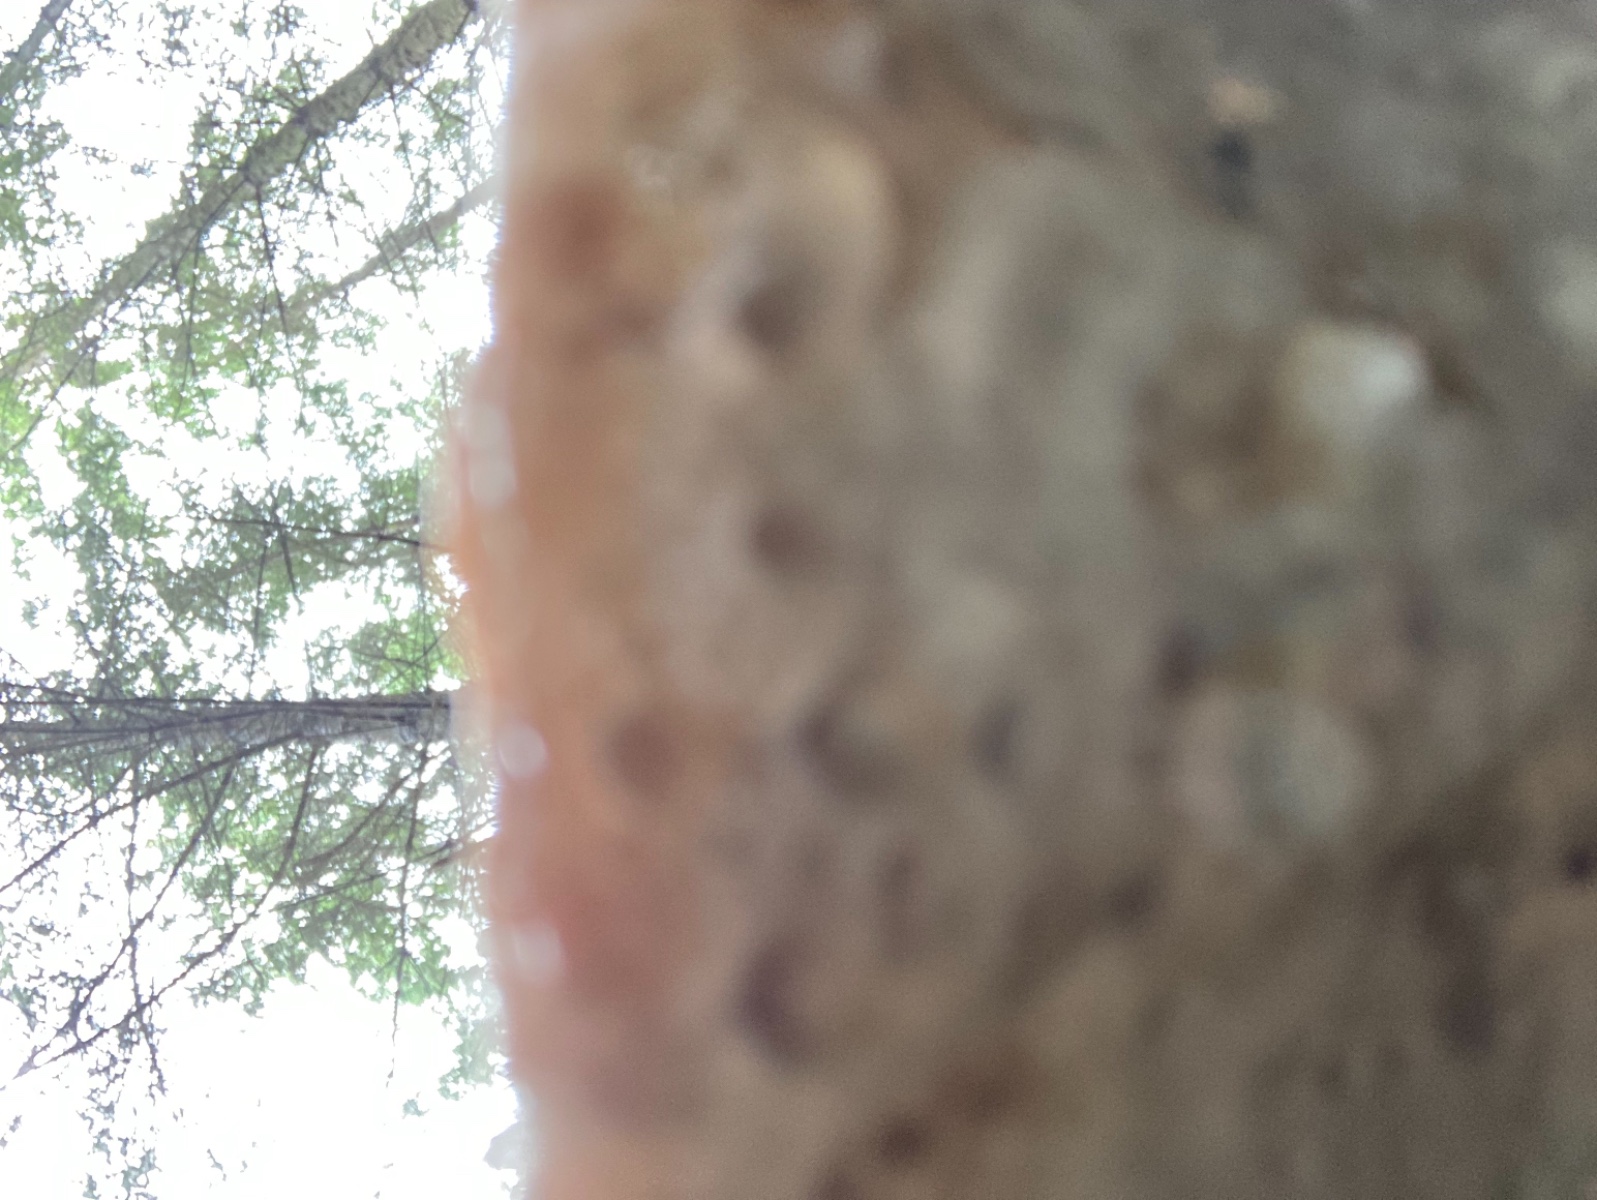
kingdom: Fungi
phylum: Basidiomycota
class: Agaricomycetes
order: Polyporales
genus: Calcipostia
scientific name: Calcipostia guttulata
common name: dråbe-kødporesvamp
